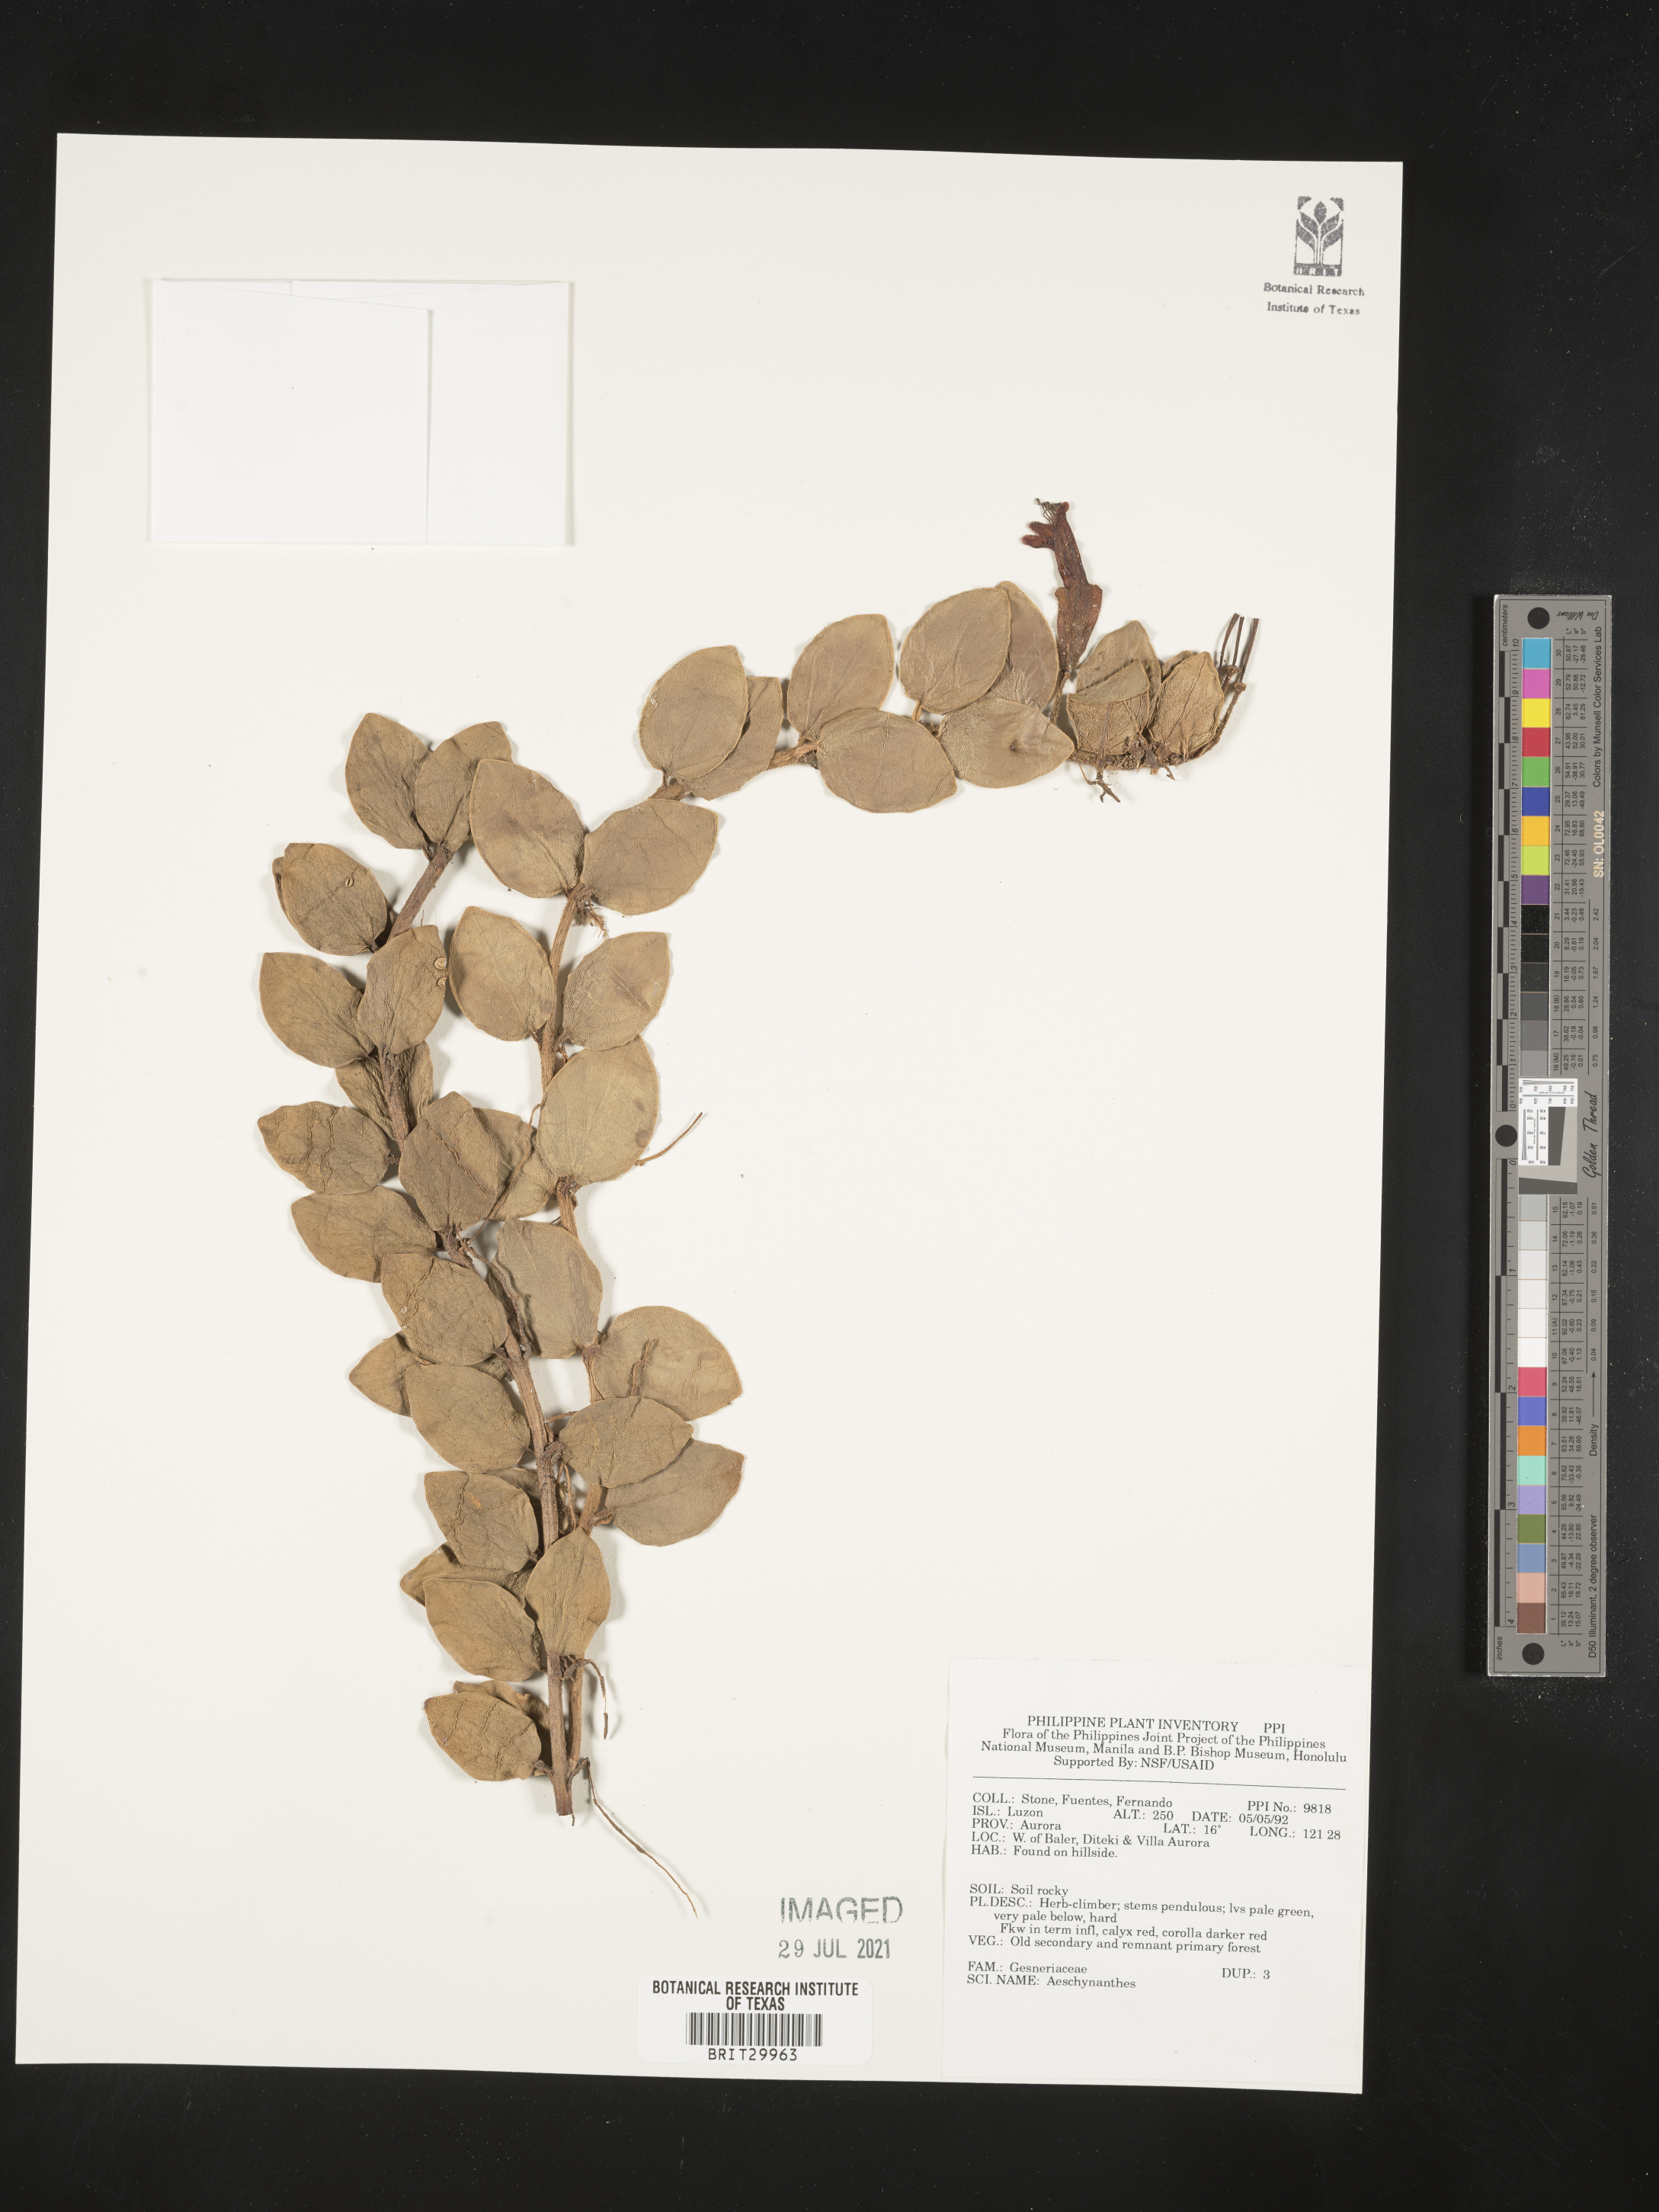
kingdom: Plantae
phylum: Tracheophyta
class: Magnoliopsida
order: Lamiales
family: Gesneriaceae
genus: Aeschynanthus
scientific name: Aeschynanthus
